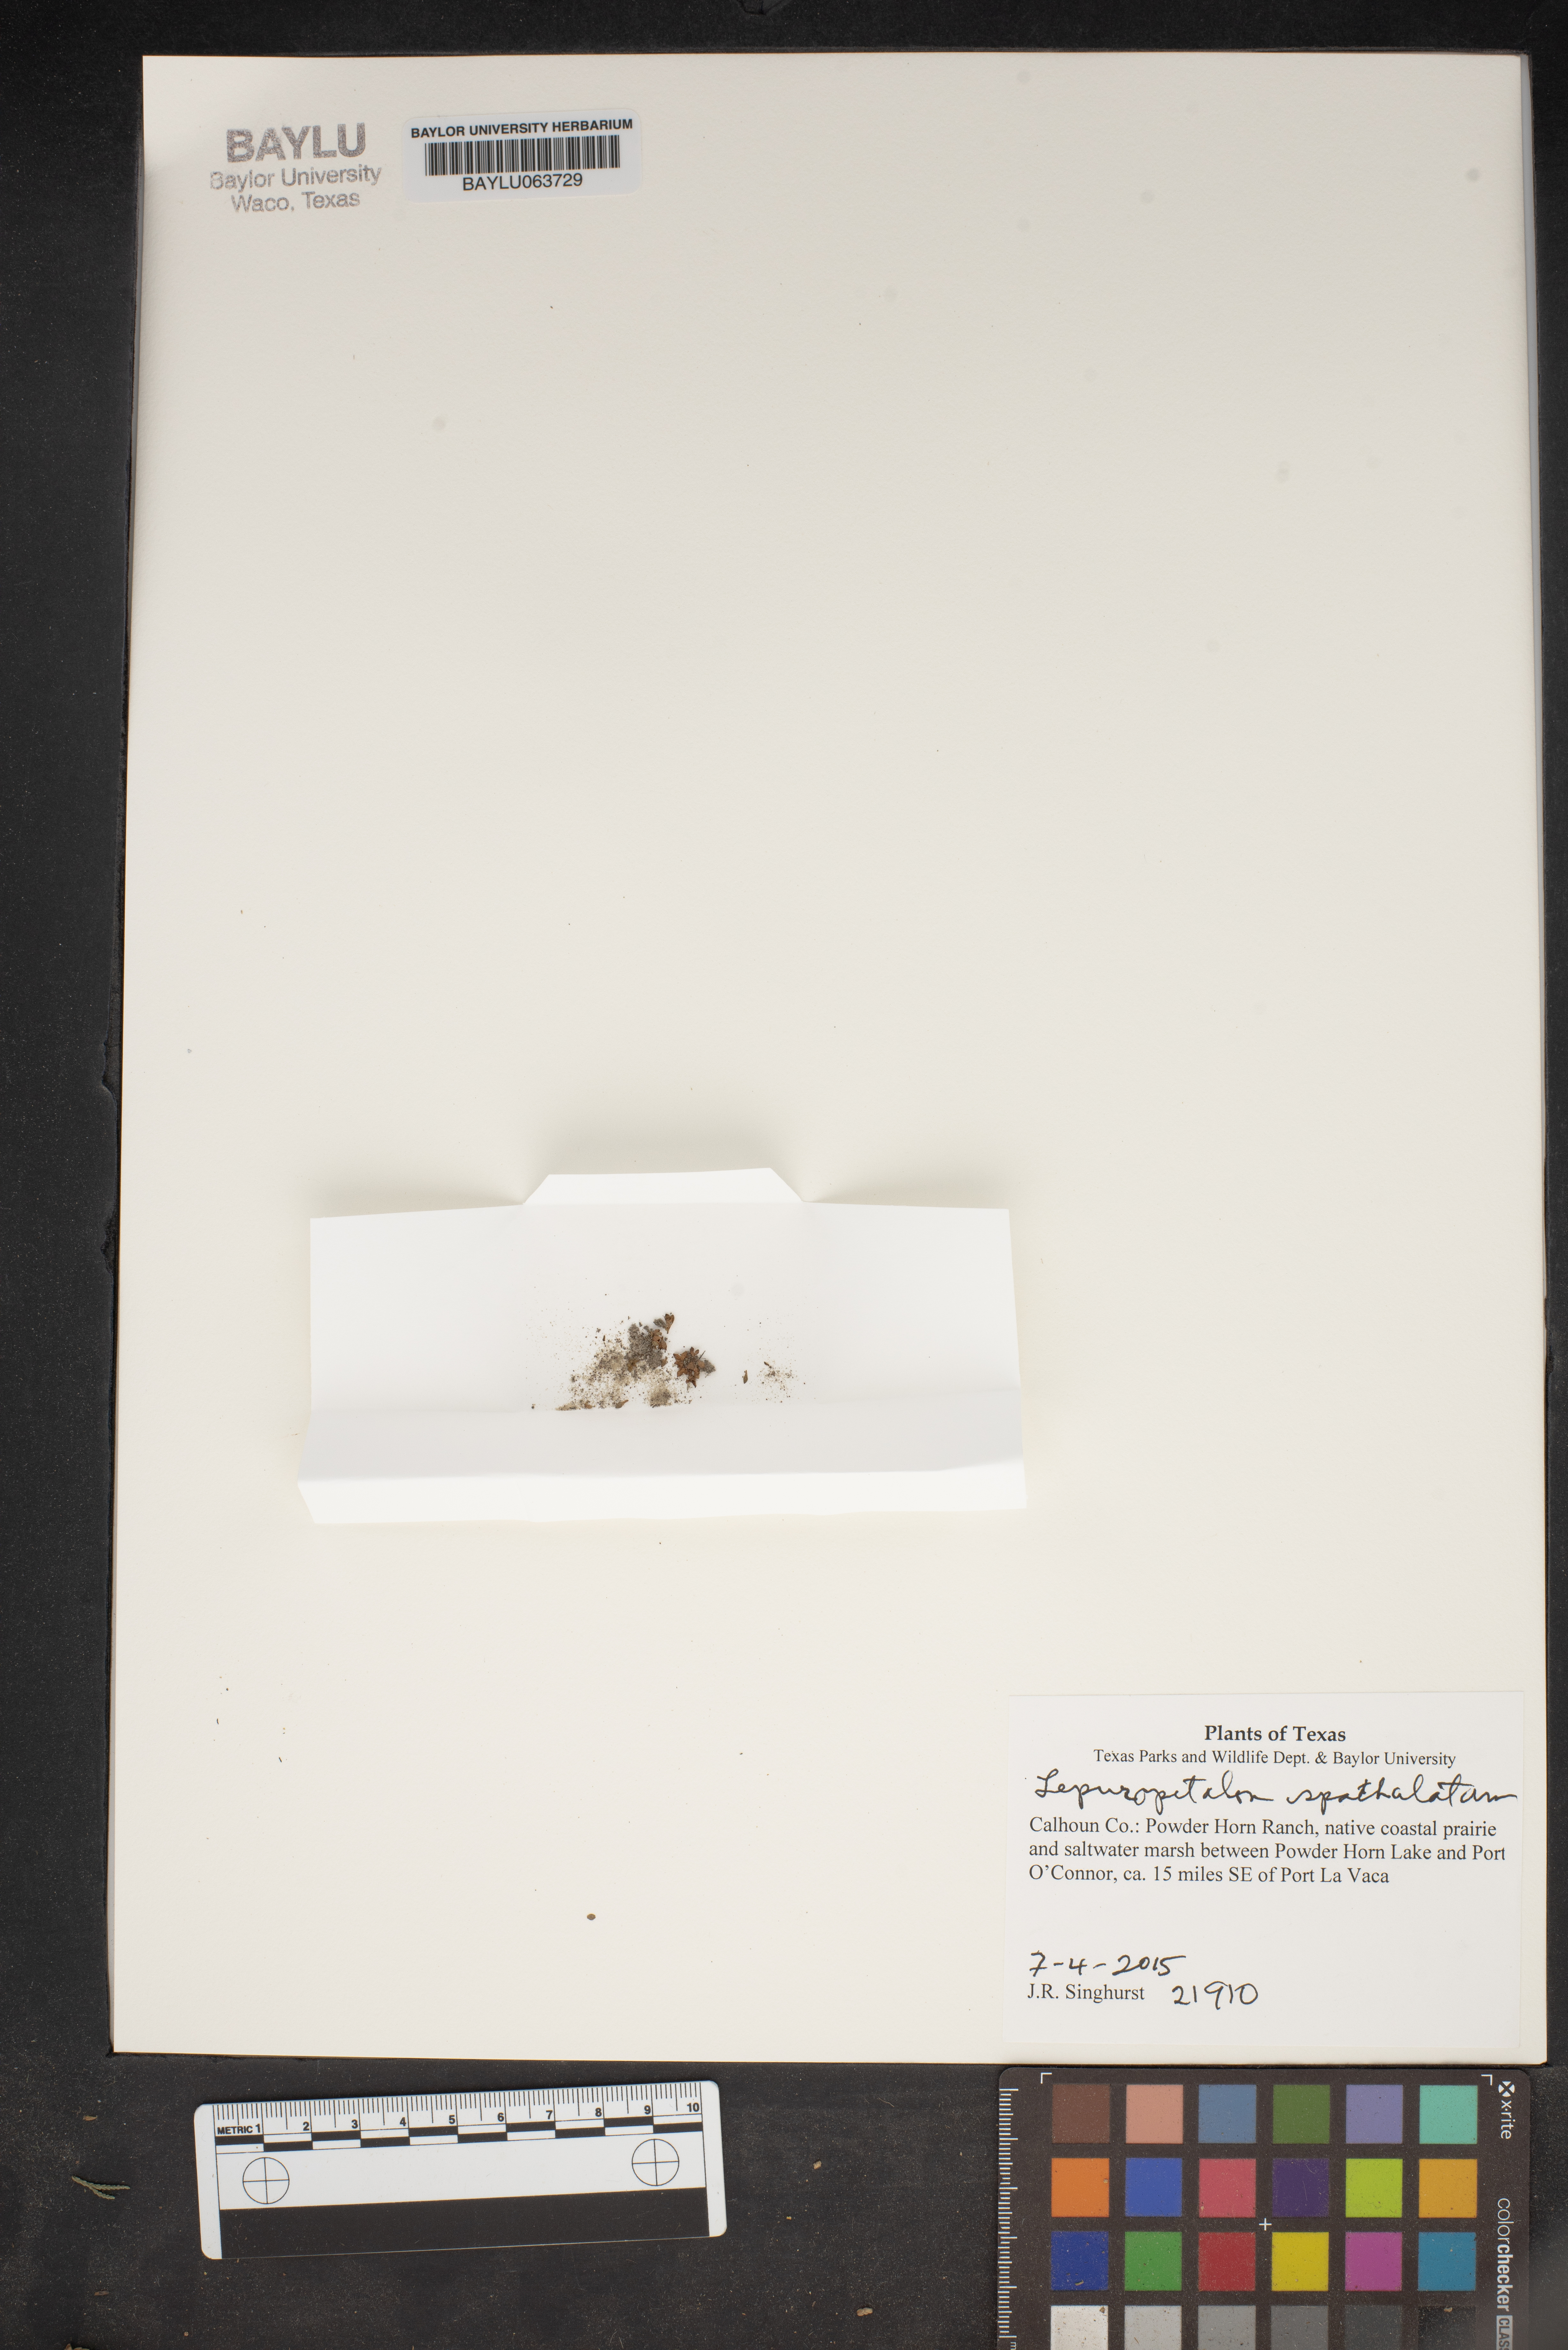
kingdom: Plantae
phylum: Tracheophyta
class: Magnoliopsida
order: Celastrales
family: Parnassiaceae
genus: Lepuropetalon
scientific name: Lepuropetalon spathulatum
